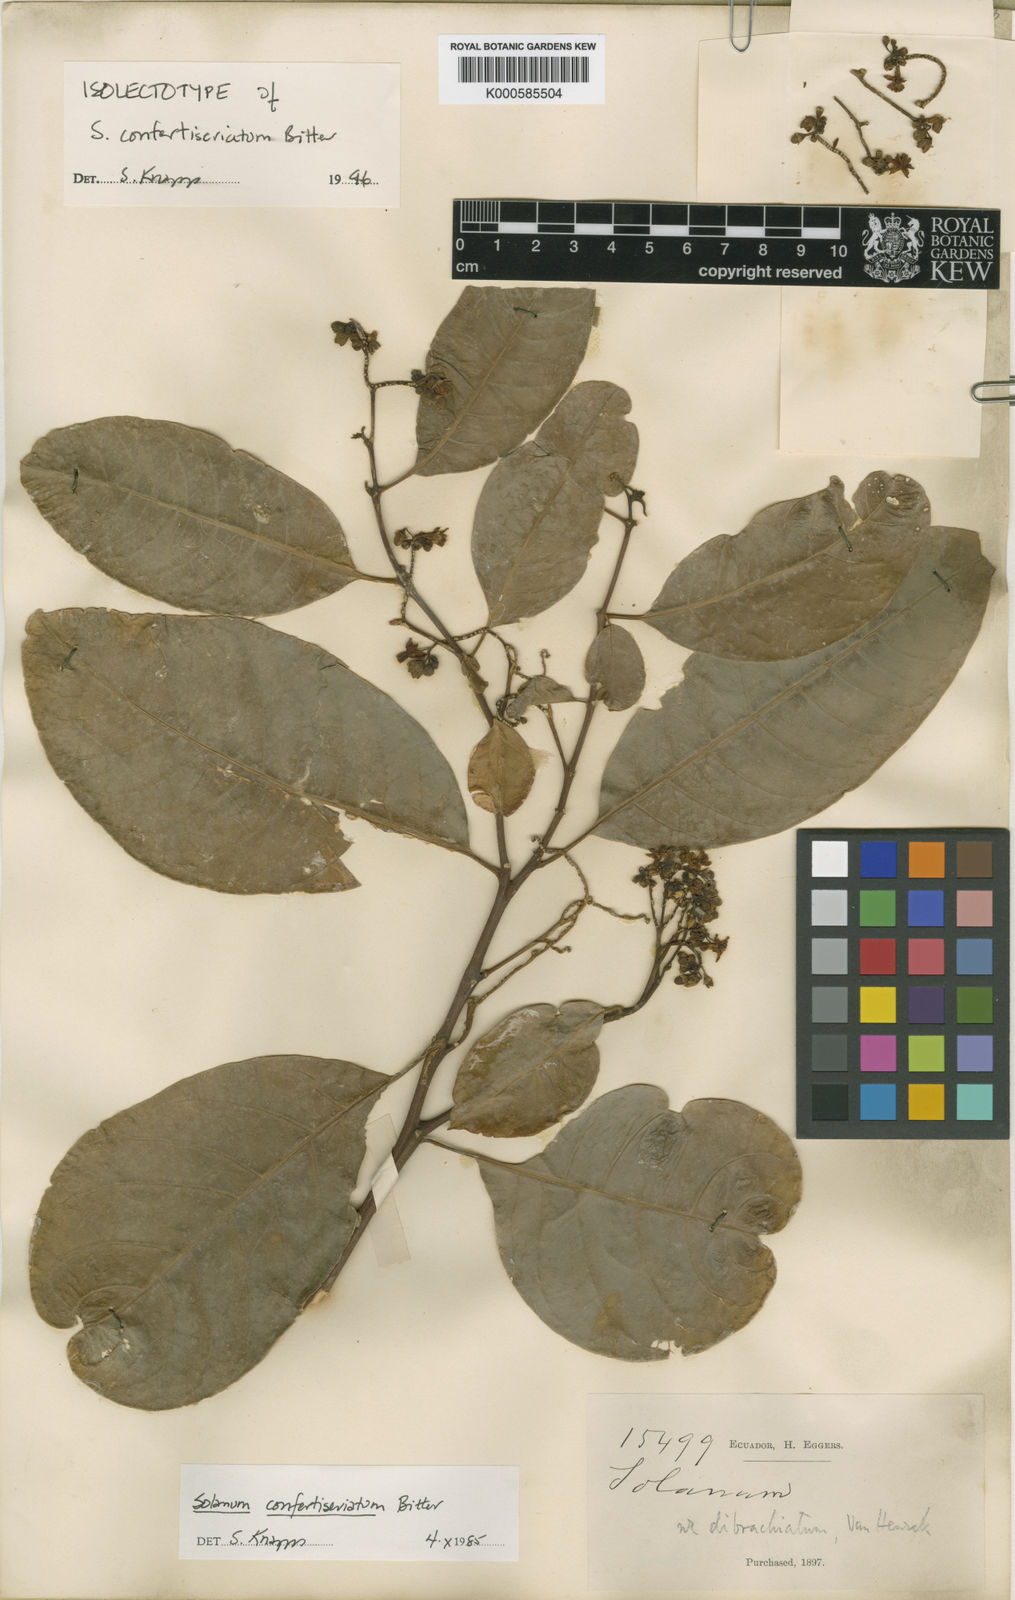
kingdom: Plantae
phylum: Tracheophyta
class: Magnoliopsida
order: Solanales
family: Solanaceae
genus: Solanum
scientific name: Solanum confertiseriatum
